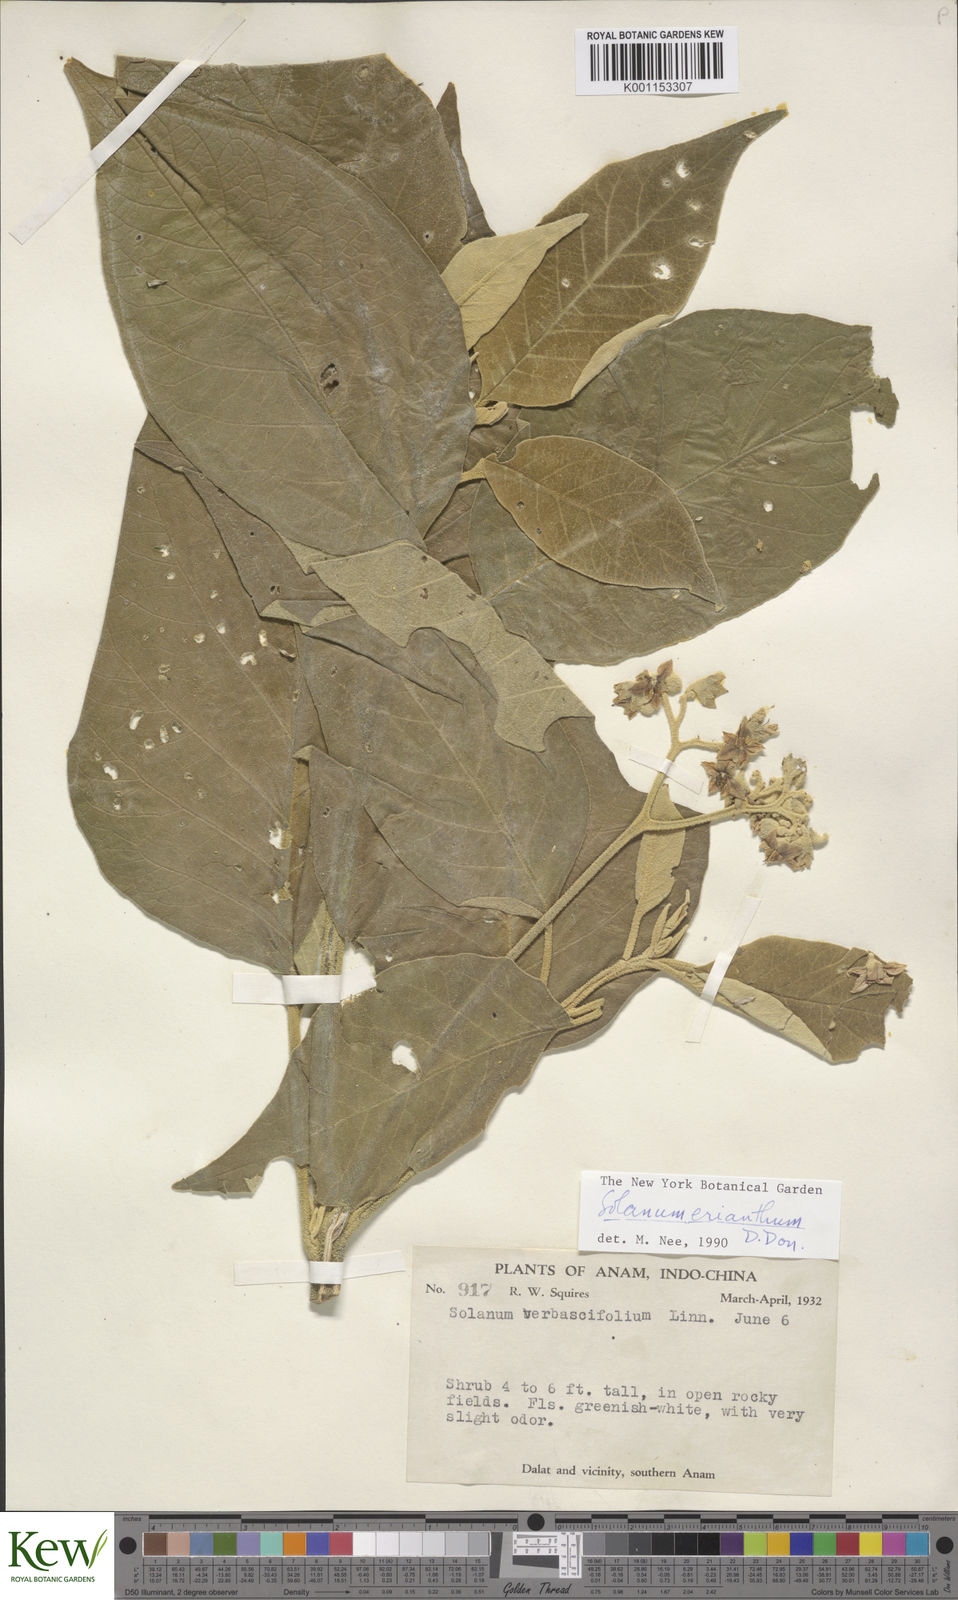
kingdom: Plantae
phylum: Tracheophyta
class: Magnoliopsida
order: Solanales
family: Solanaceae
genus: Solanum
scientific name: Solanum erianthum
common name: Tobacco-tree
